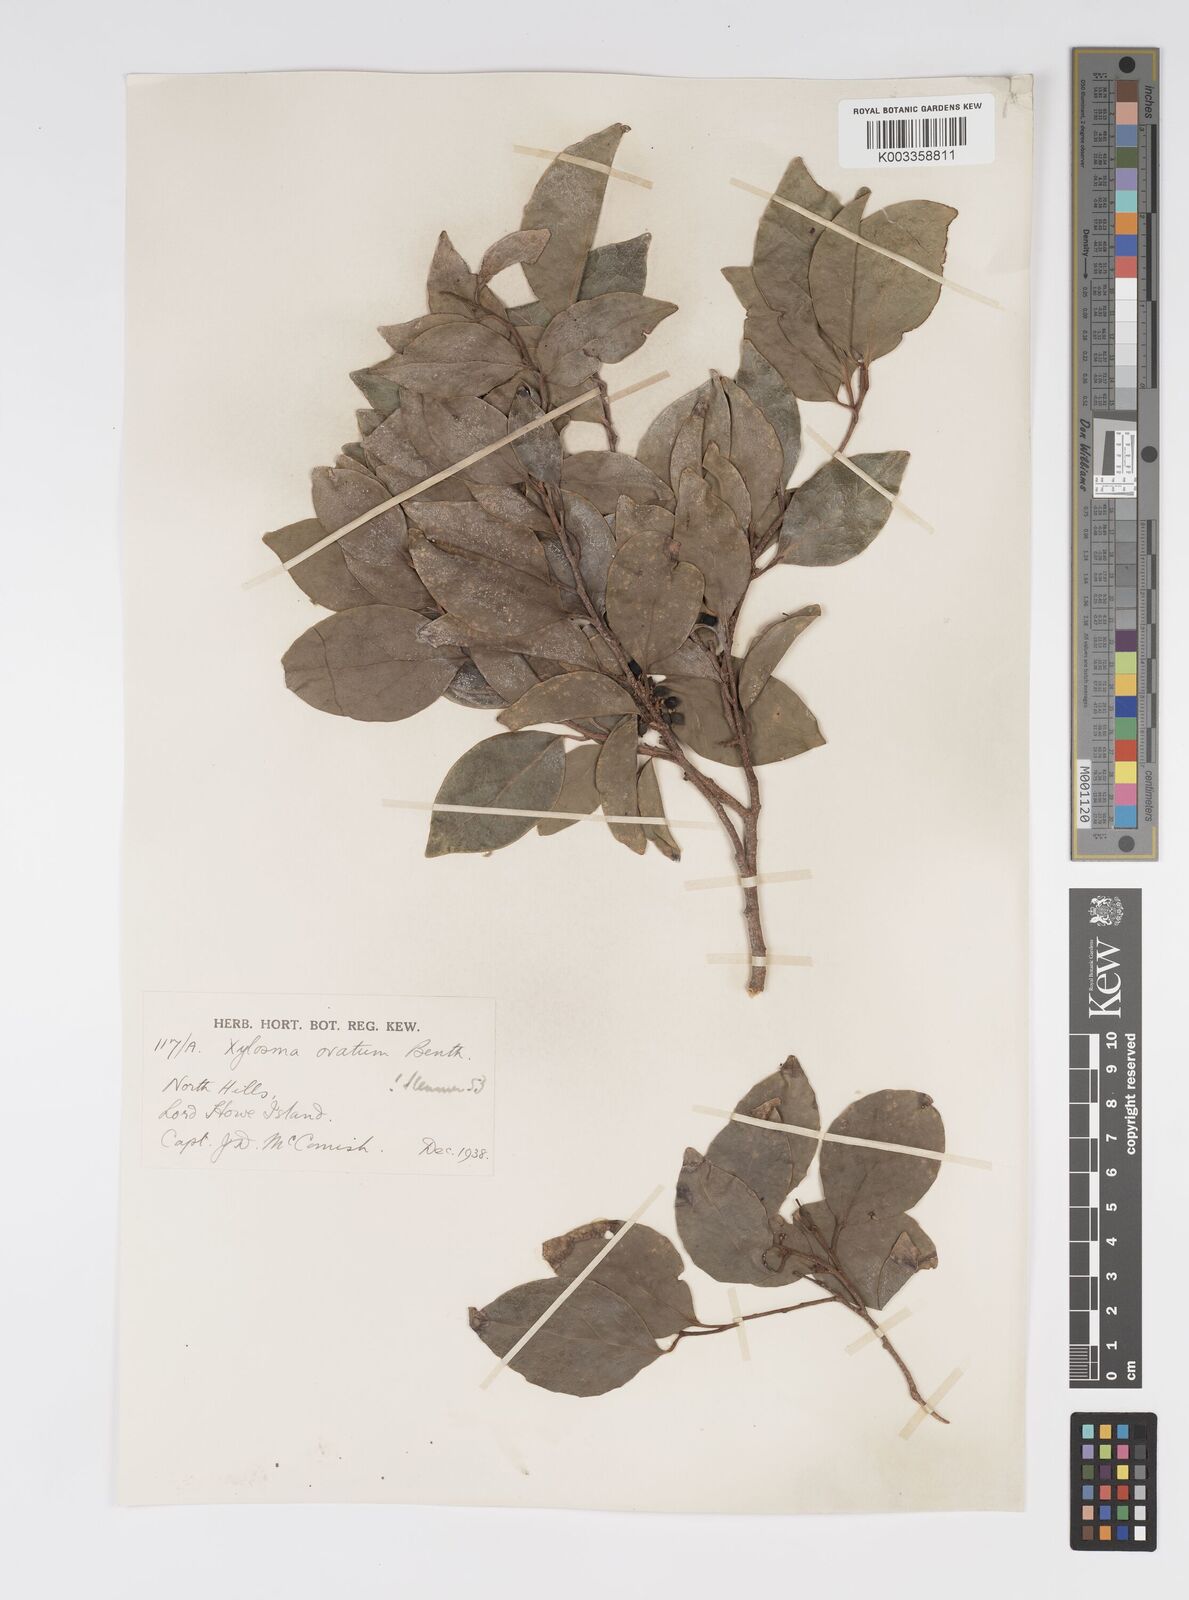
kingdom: Plantae
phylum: Tracheophyta
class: Magnoliopsida
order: Malpighiales
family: Salicaceae
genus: Xylosma
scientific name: Xylosma maidenii
